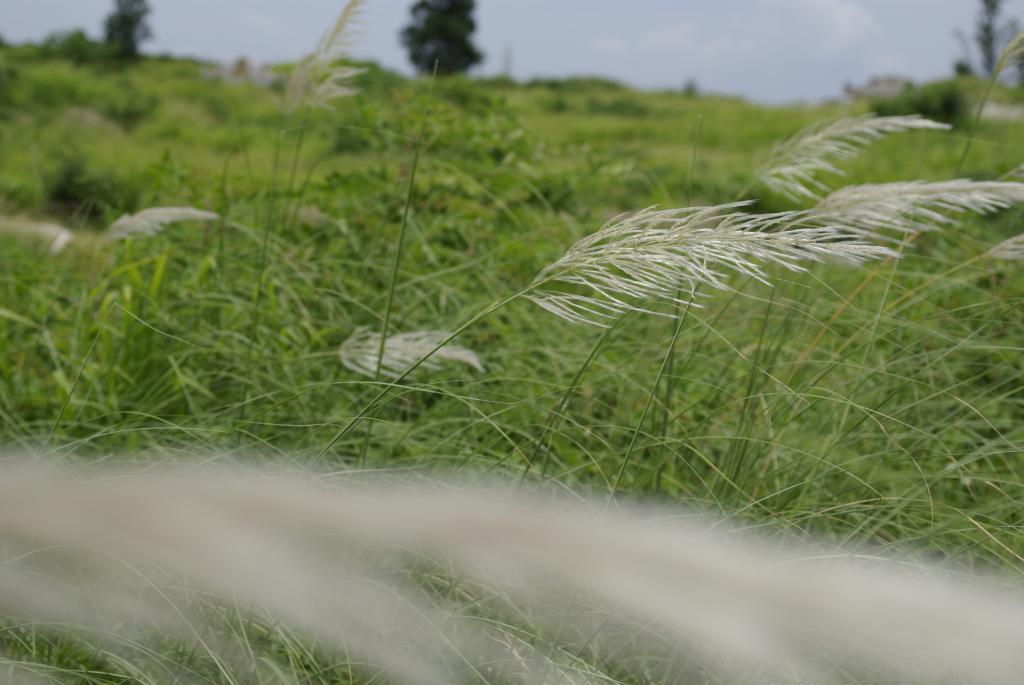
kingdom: Plantae
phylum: Tracheophyta
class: Liliopsida
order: Poales
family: Poaceae
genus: Saccharum
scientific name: Saccharum spontaneum
